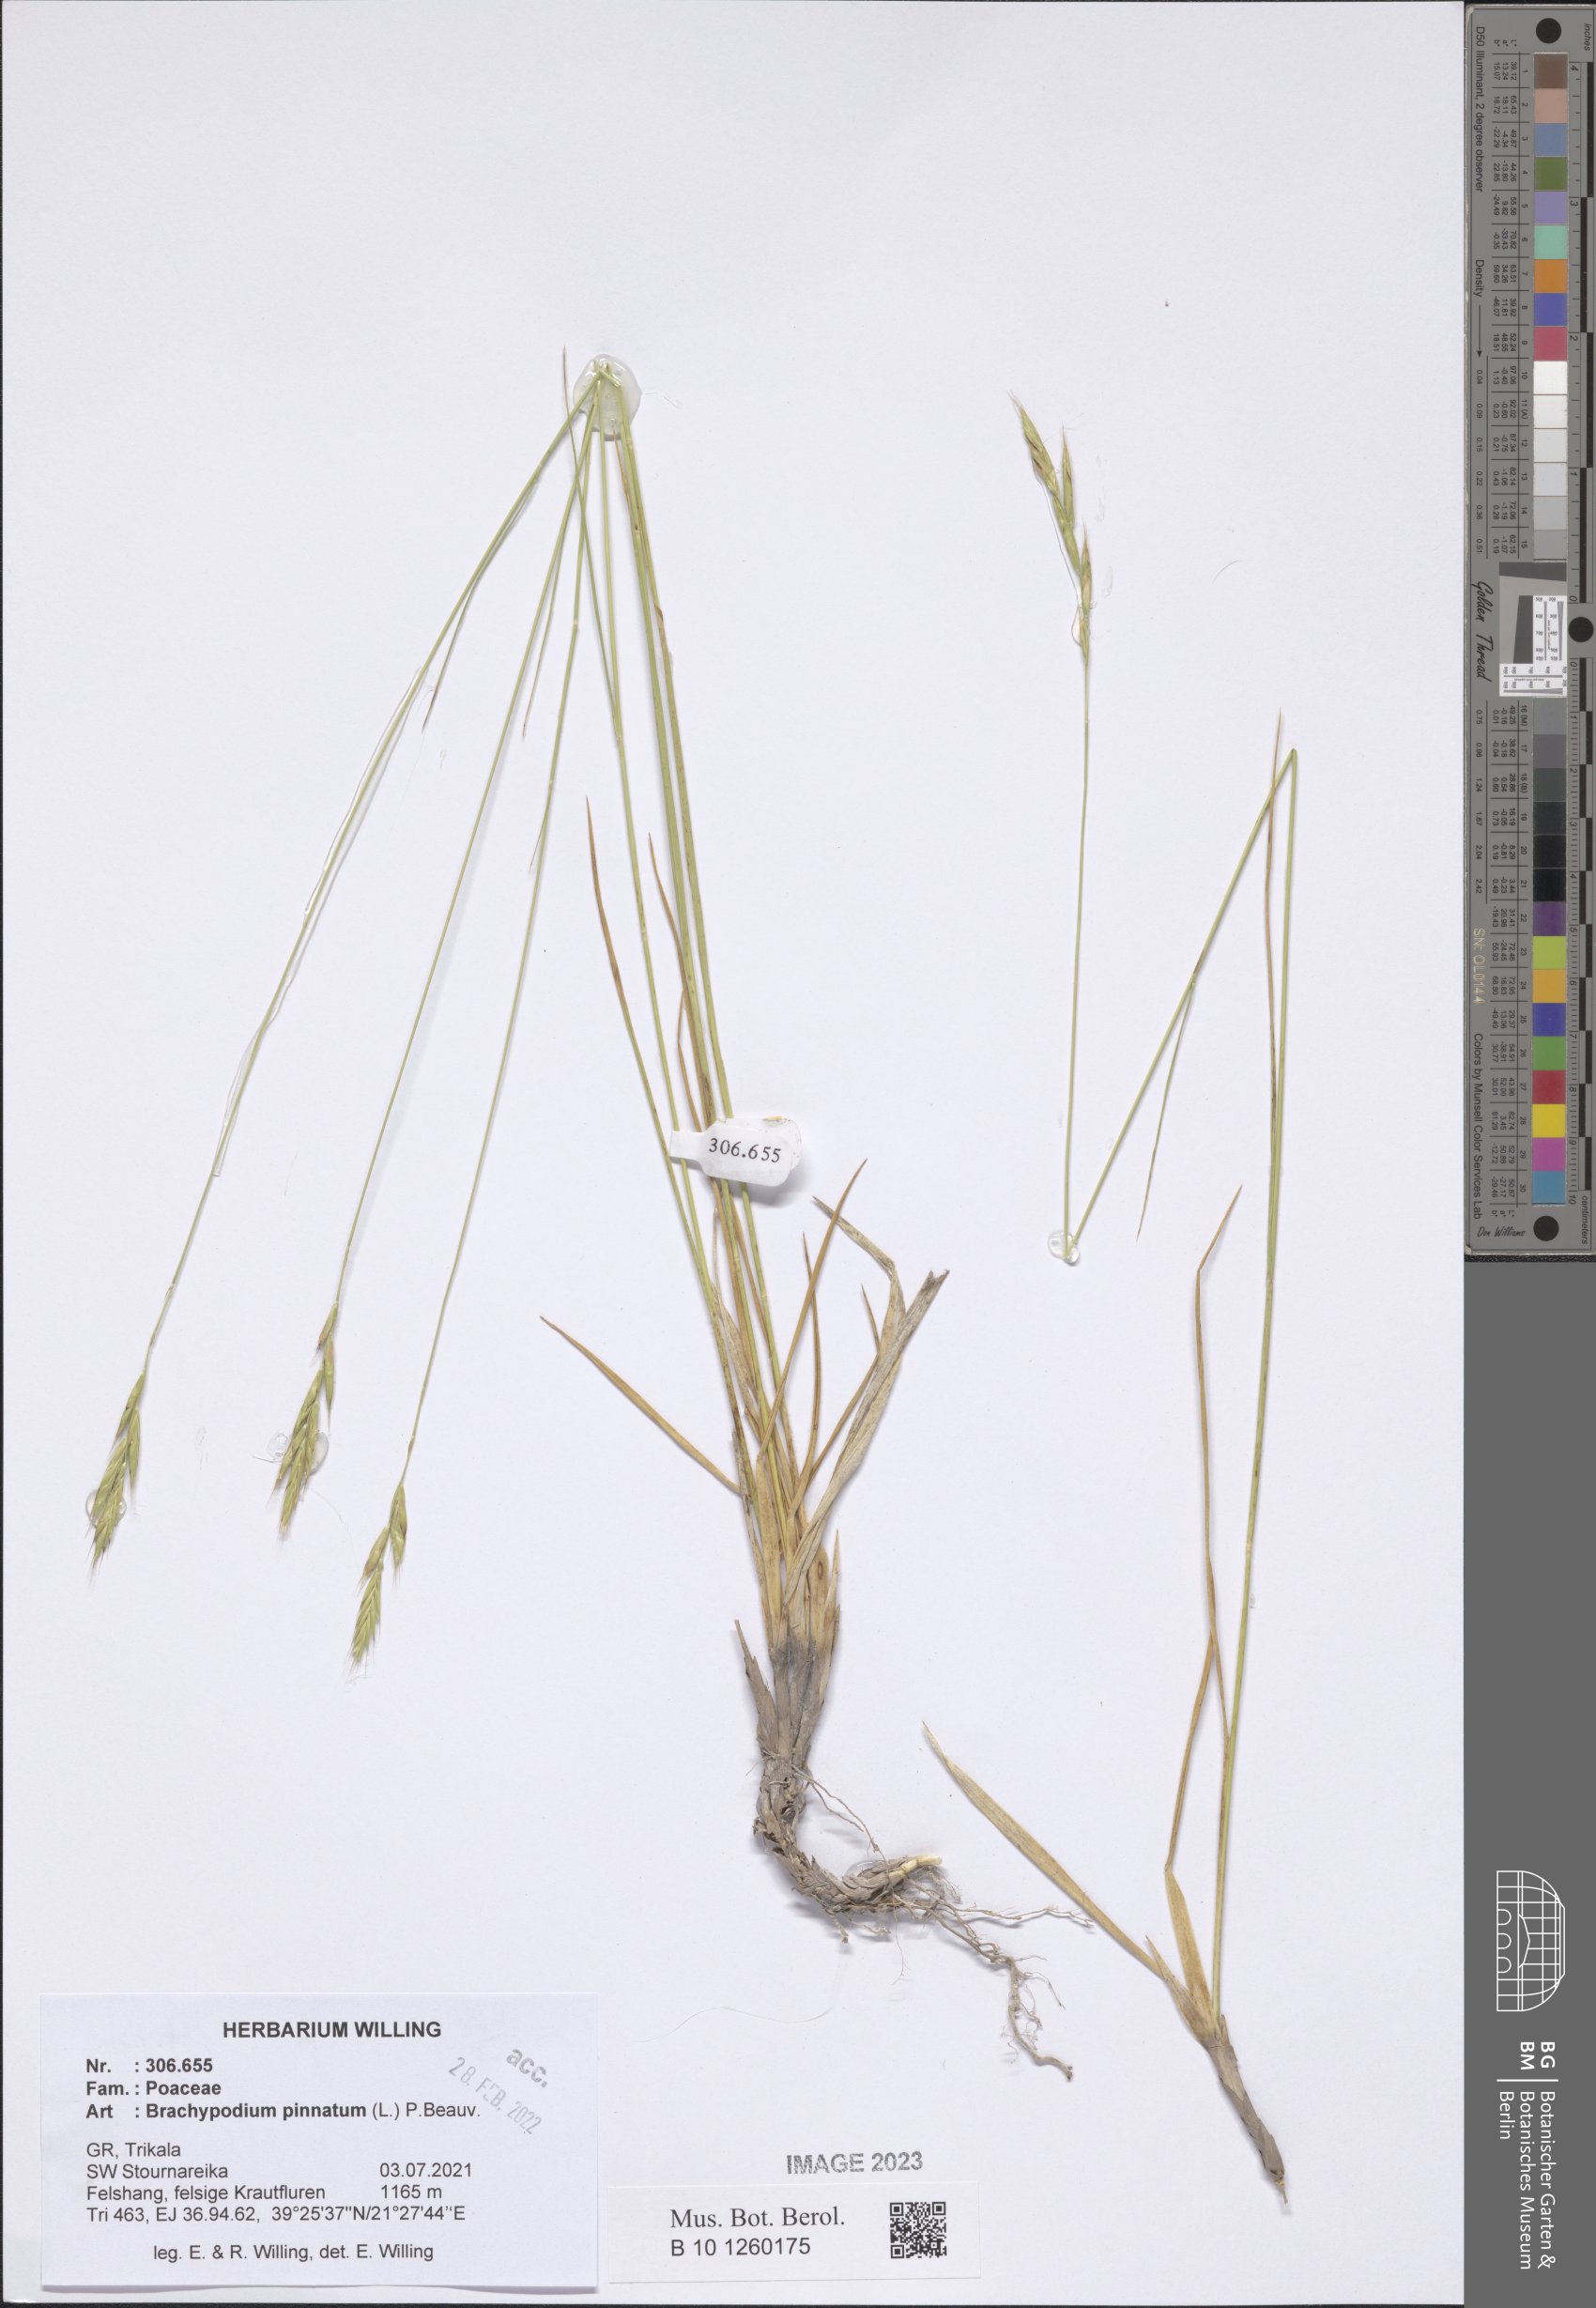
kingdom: Plantae
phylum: Tracheophyta
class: Liliopsida
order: Poales
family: Poaceae
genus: Brachypodium
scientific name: Brachypodium pinnatum
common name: Tor grass
